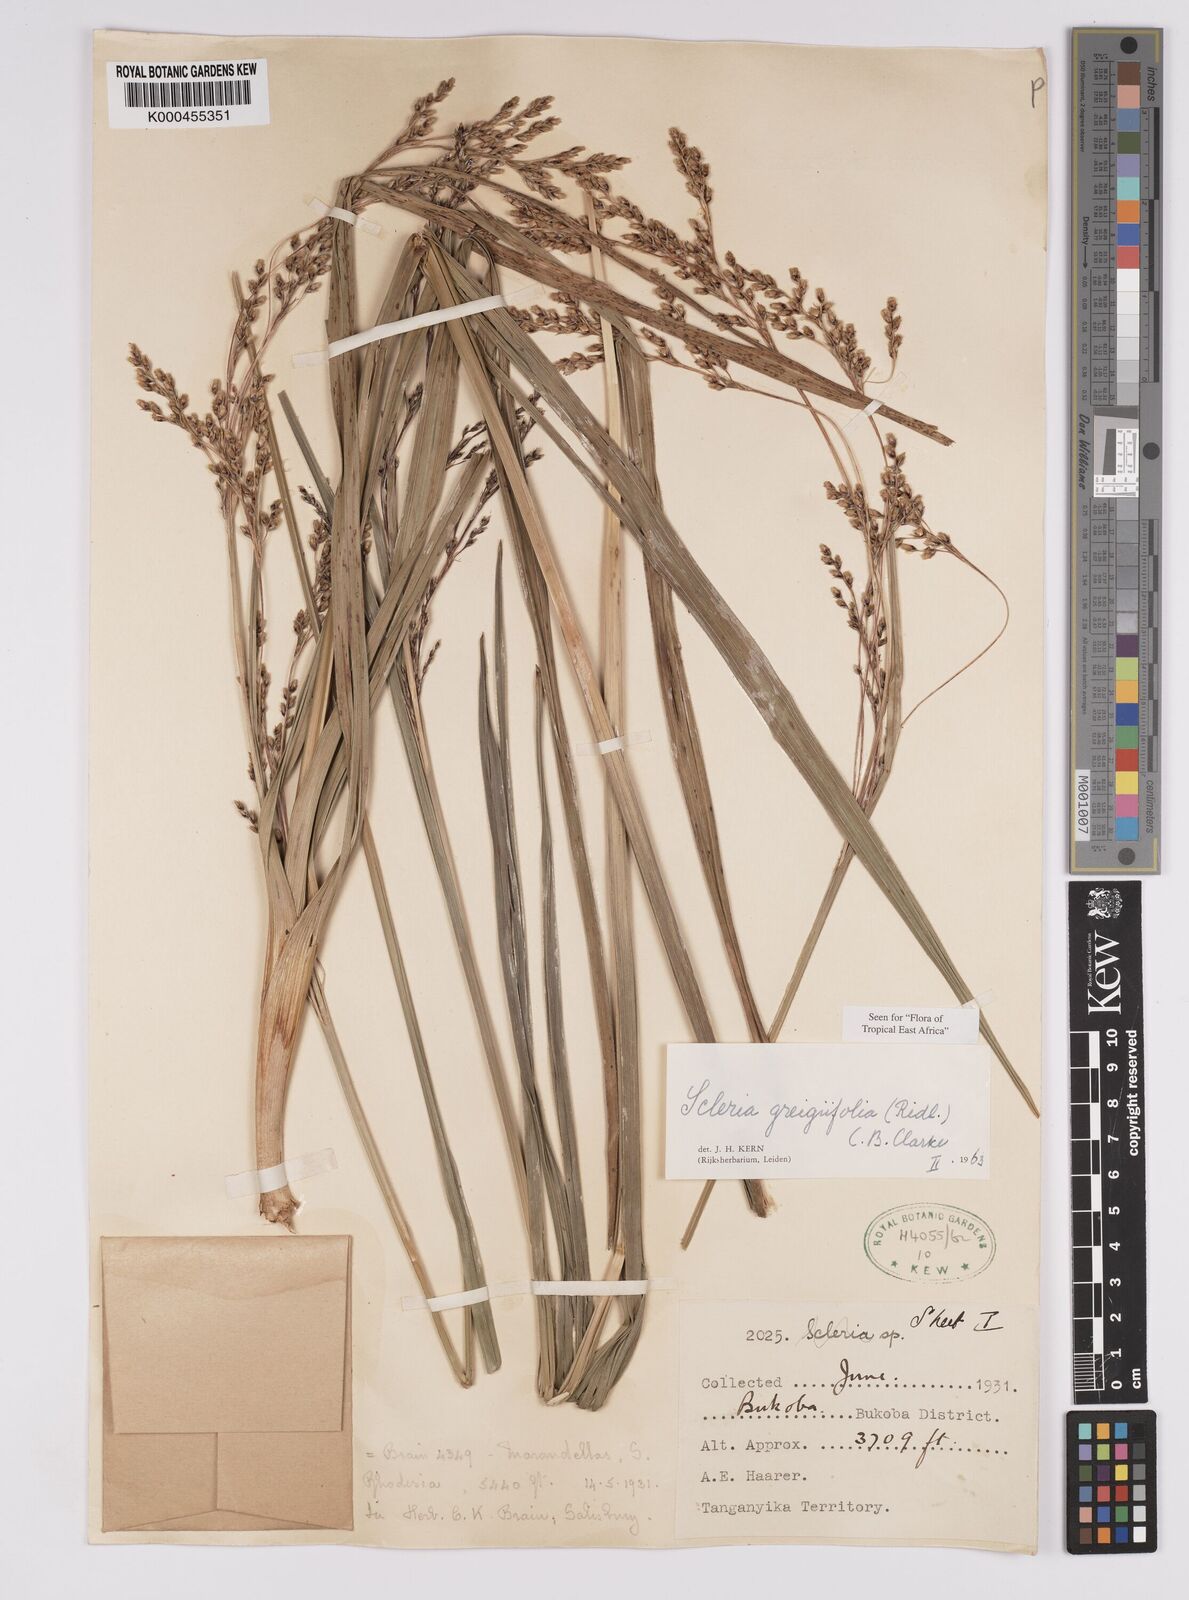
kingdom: Plantae
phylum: Tracheophyta
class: Liliopsida
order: Poales
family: Cyperaceae
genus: Scleria
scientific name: Scleria greigiifolia
